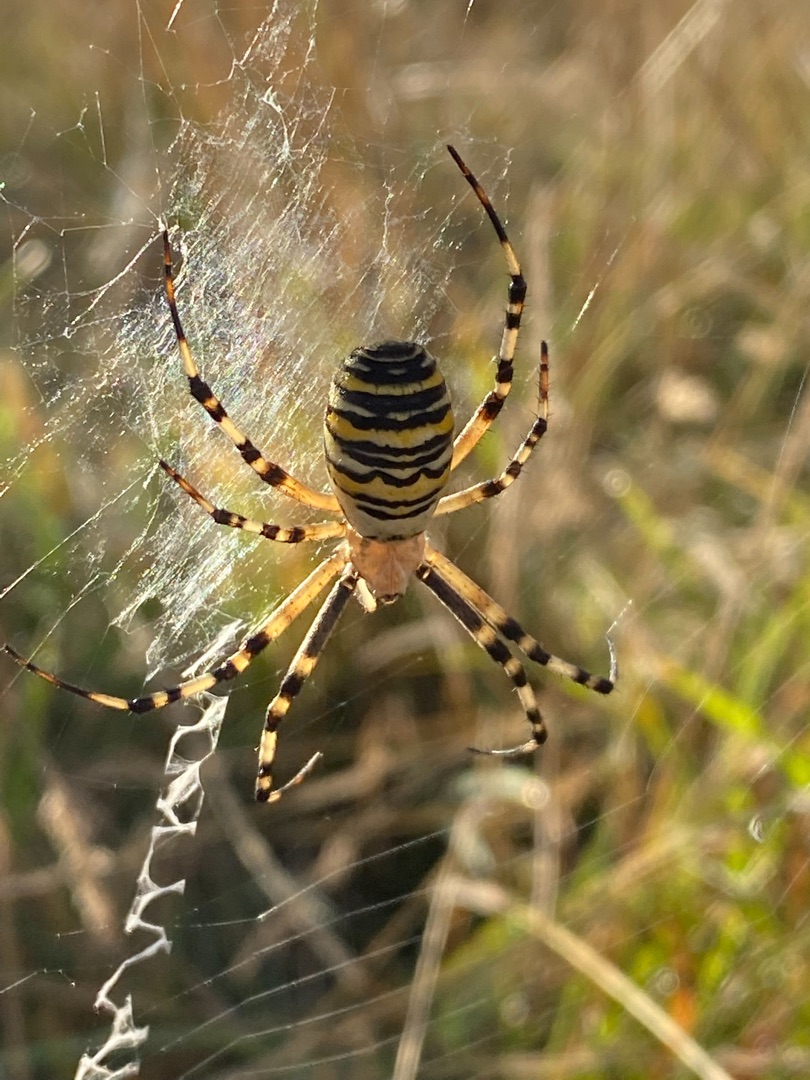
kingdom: Animalia
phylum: Arthropoda
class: Arachnida
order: Araneae
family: Araneidae
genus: Argiope
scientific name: Argiope bruennichi
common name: Hvepseedderkop
